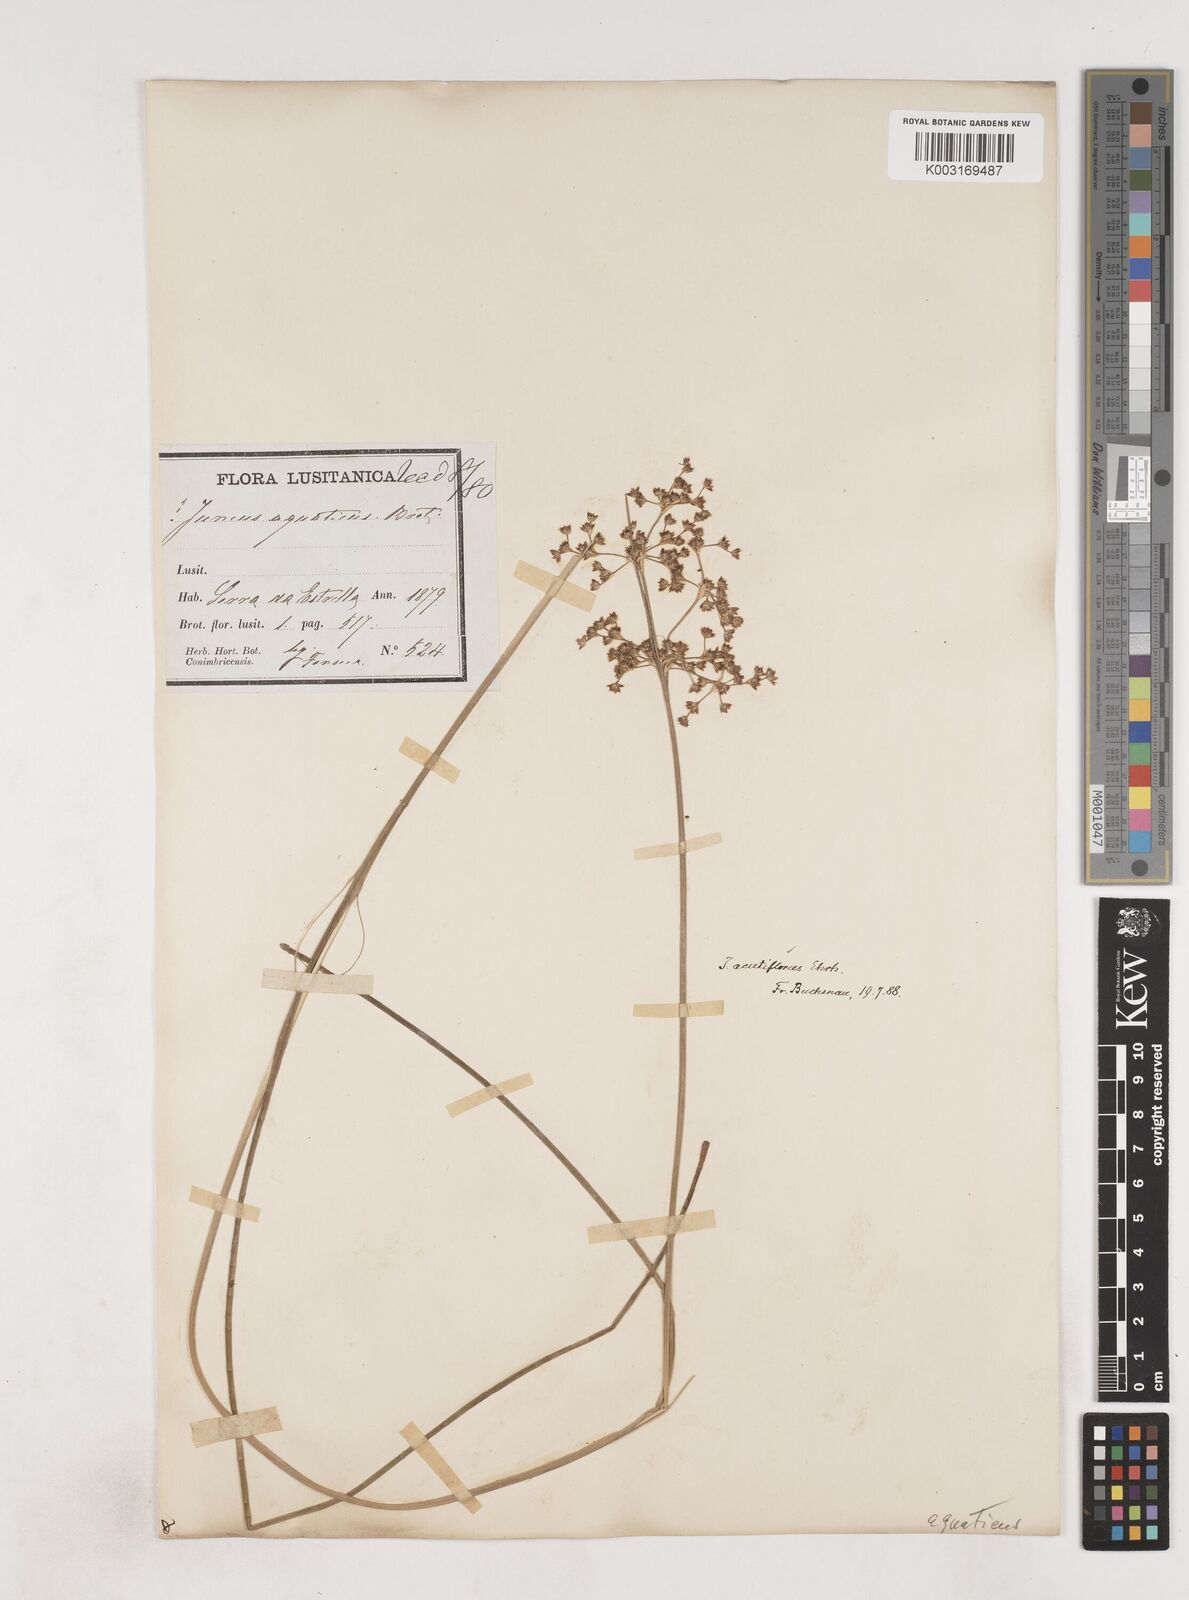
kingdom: Plantae
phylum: Tracheophyta
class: Liliopsida
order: Poales
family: Juncaceae
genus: Juncus
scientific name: Juncus acutiflorus
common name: Sharp-flowered rush
